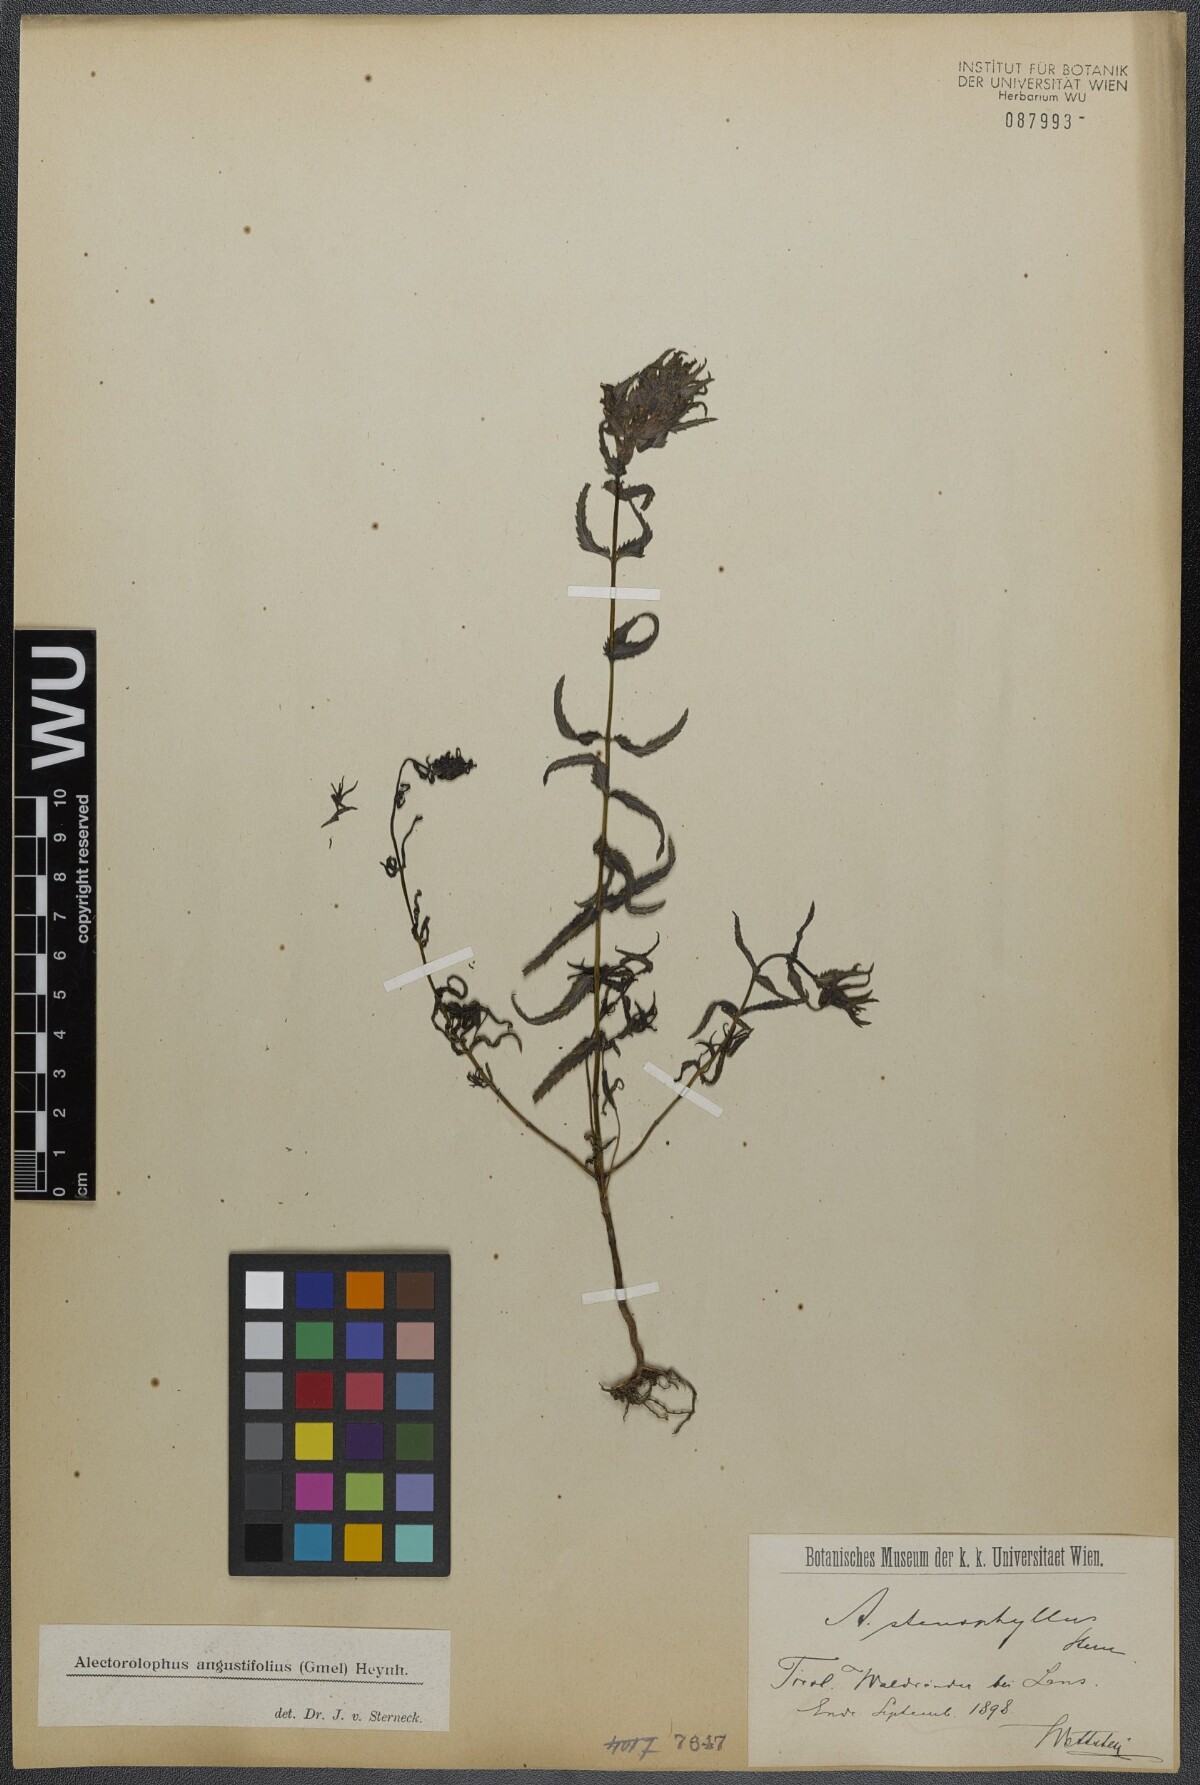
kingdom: Plantae
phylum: Tracheophyta
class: Magnoliopsida
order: Lamiales
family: Orobanchaceae
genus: Rhinanthus
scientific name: Rhinanthus
